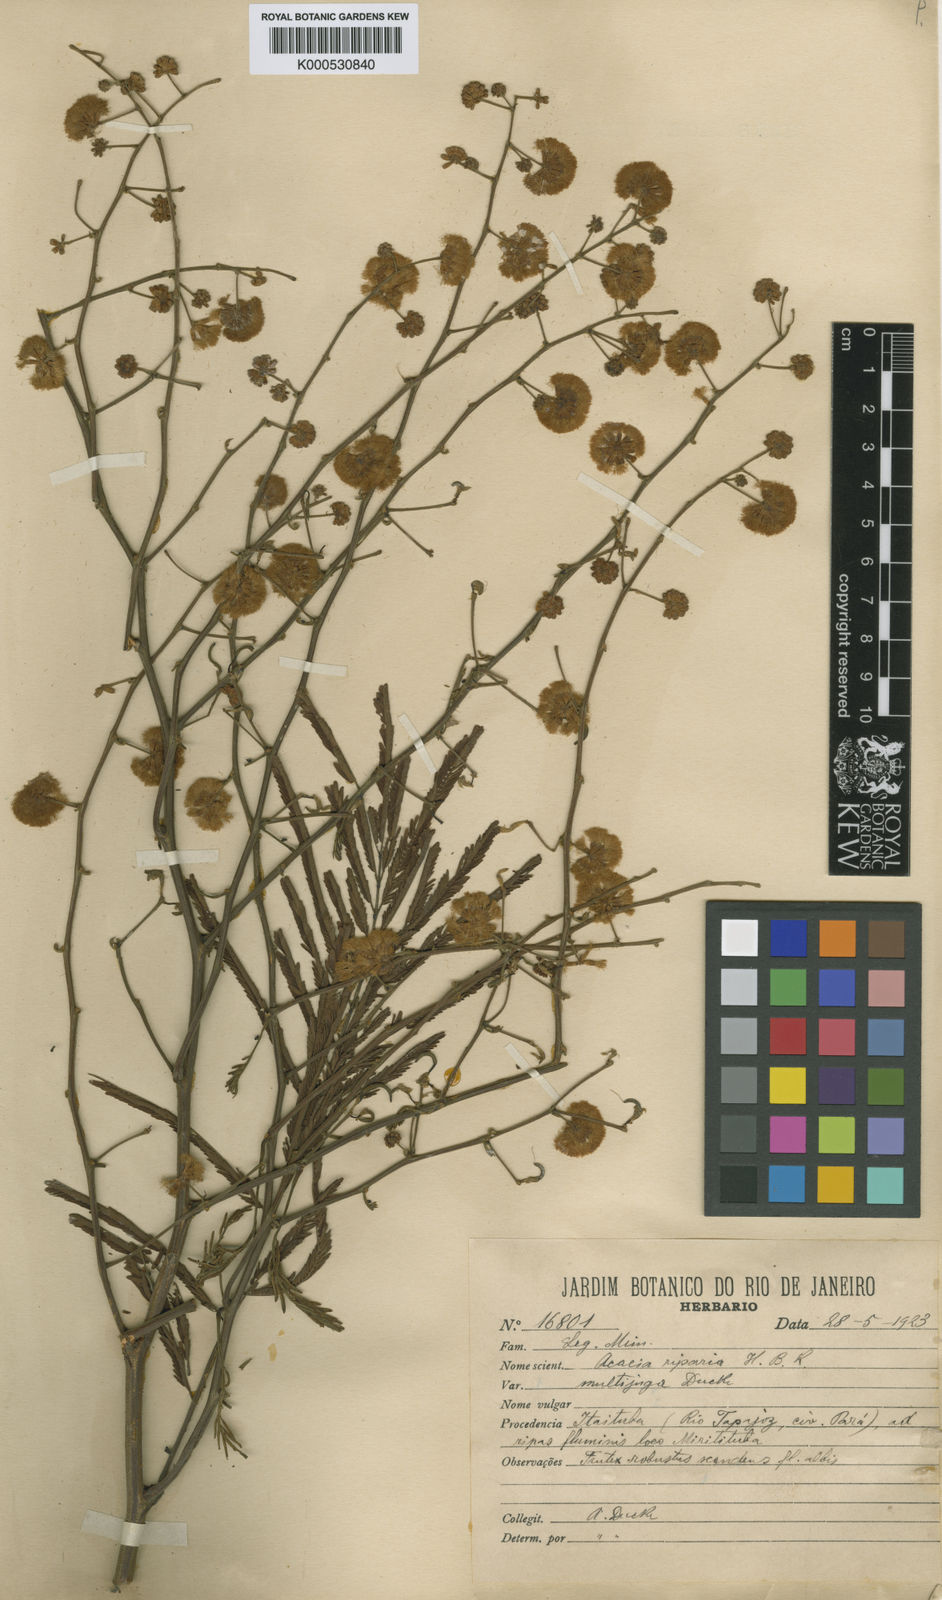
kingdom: Plantae
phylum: Tracheophyta
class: Magnoliopsida
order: Fabales
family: Fabaceae
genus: Senegalia
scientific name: Senegalia riparia
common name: Catch-and-keep
